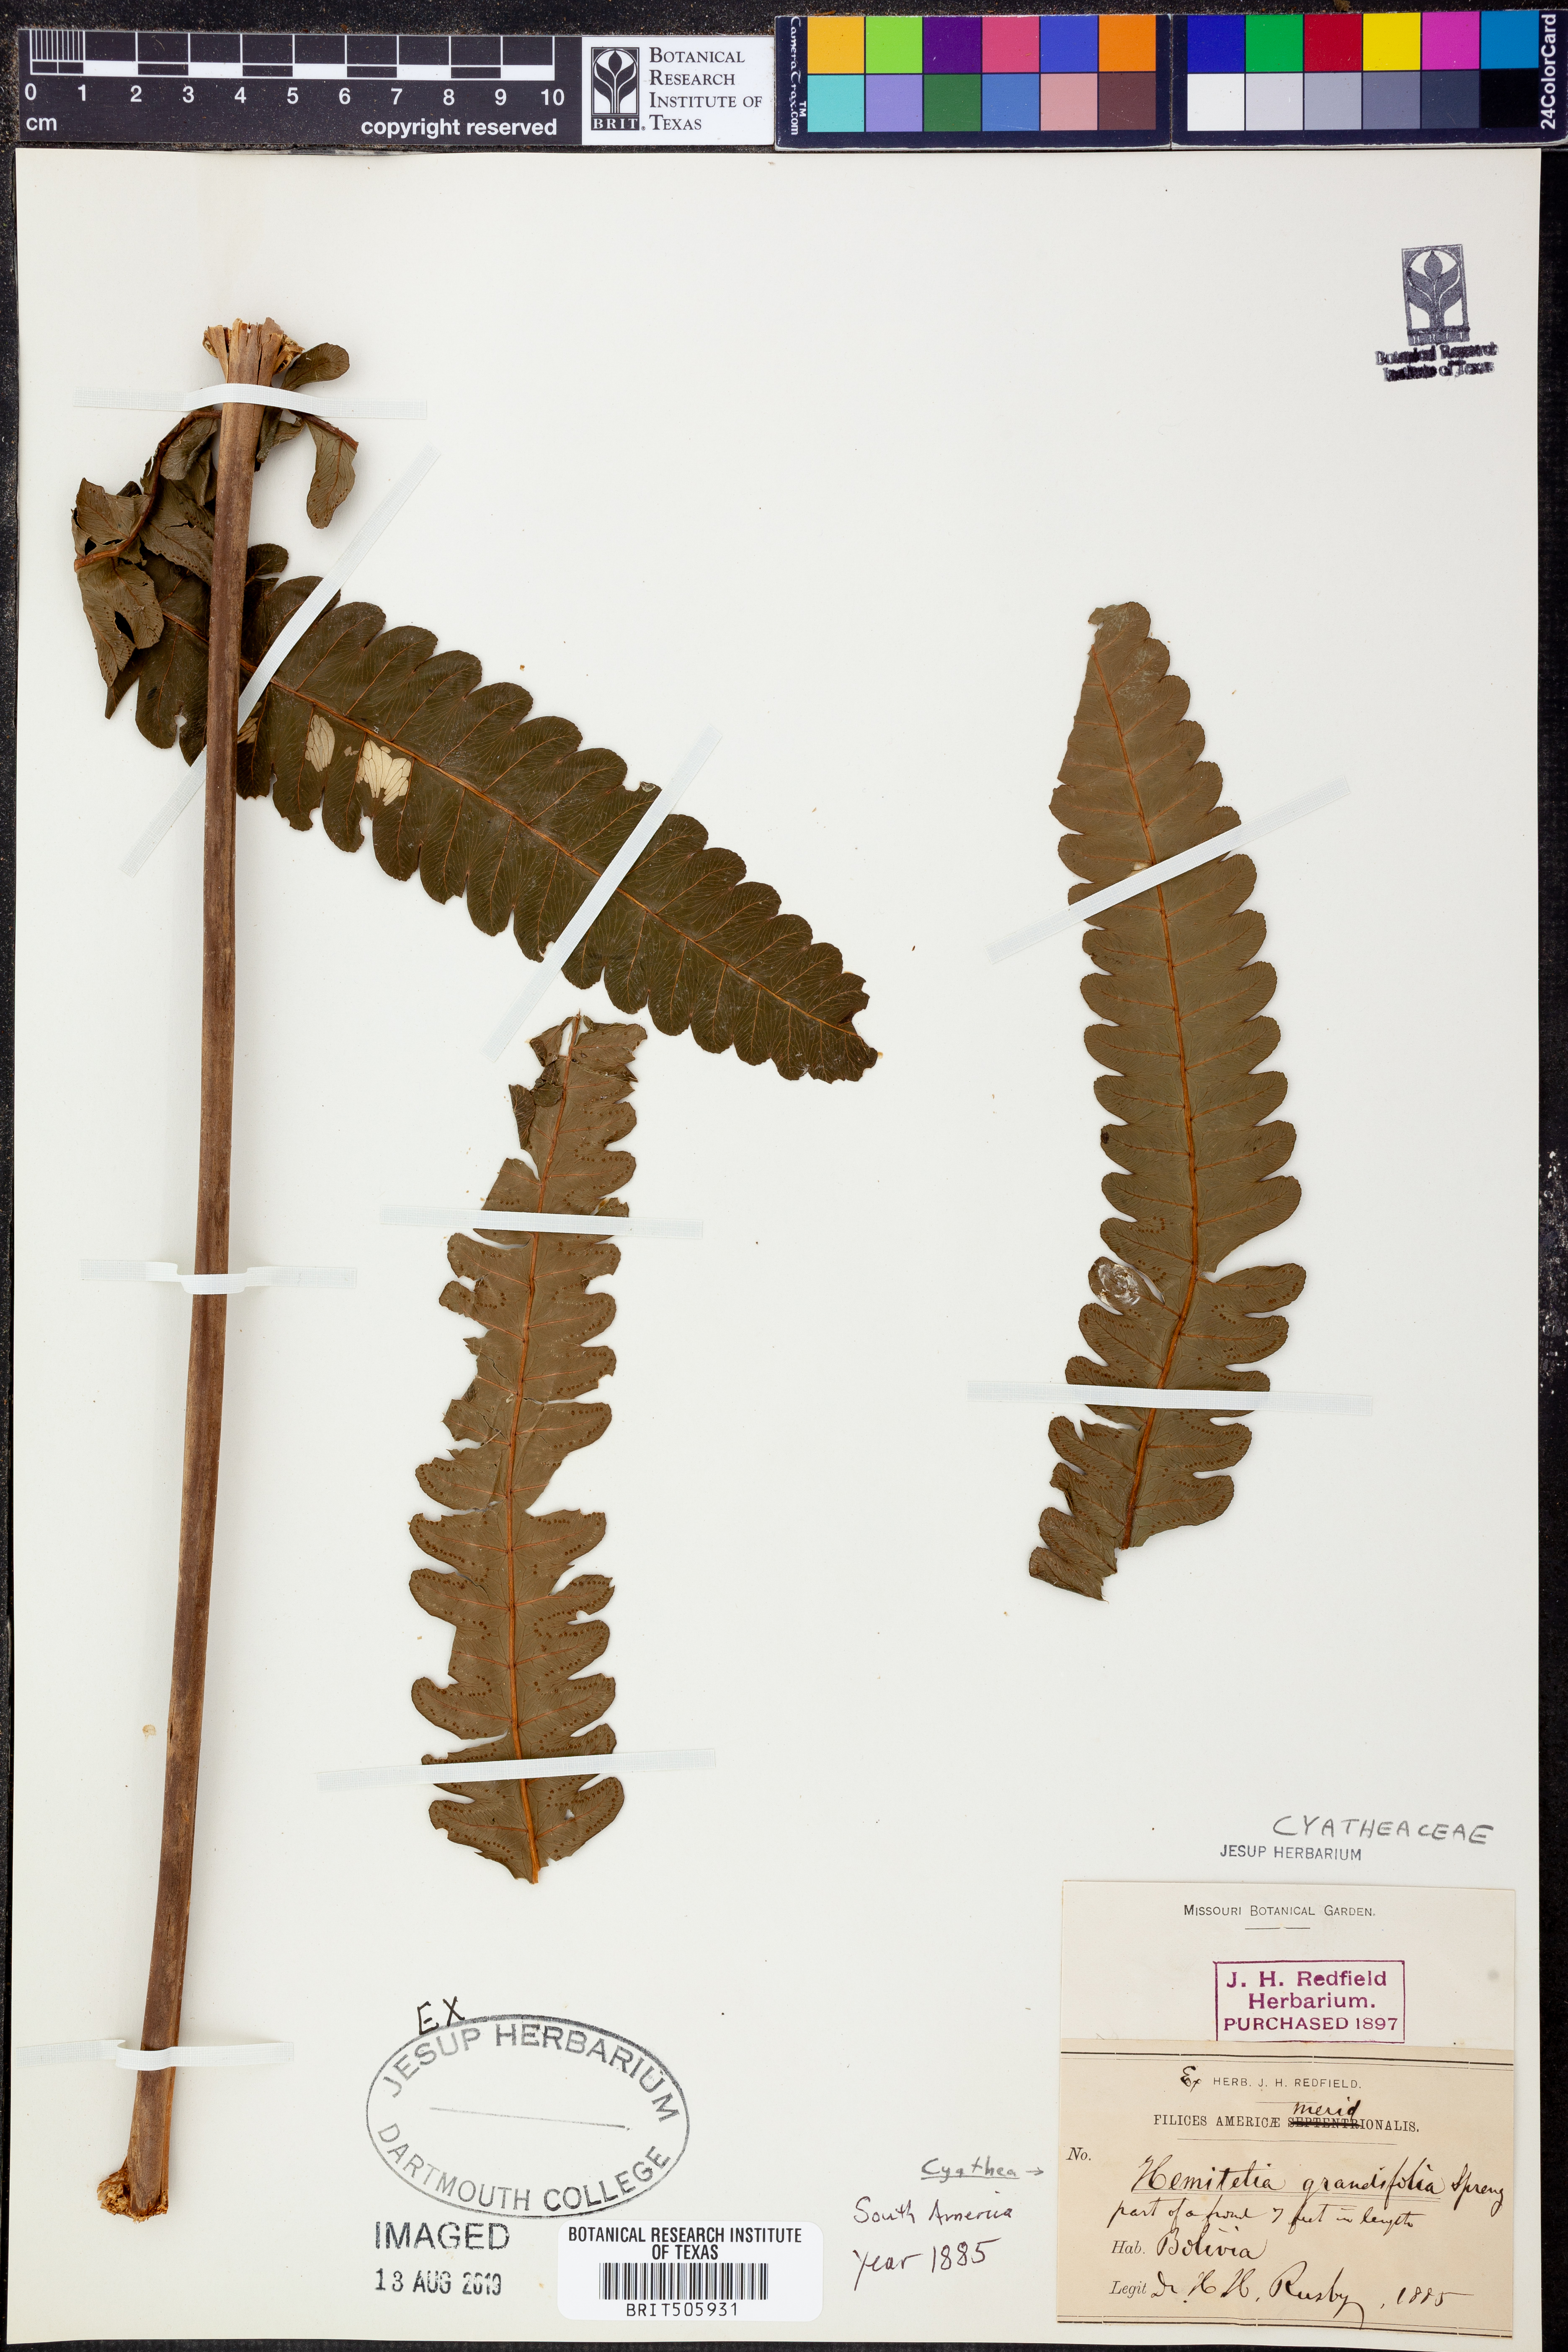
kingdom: Plantae
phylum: Tracheophyta
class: Polypodiopsida
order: Cyatheales
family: Cyatheaceae
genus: Cyathea
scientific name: Cyathea grandifolia
